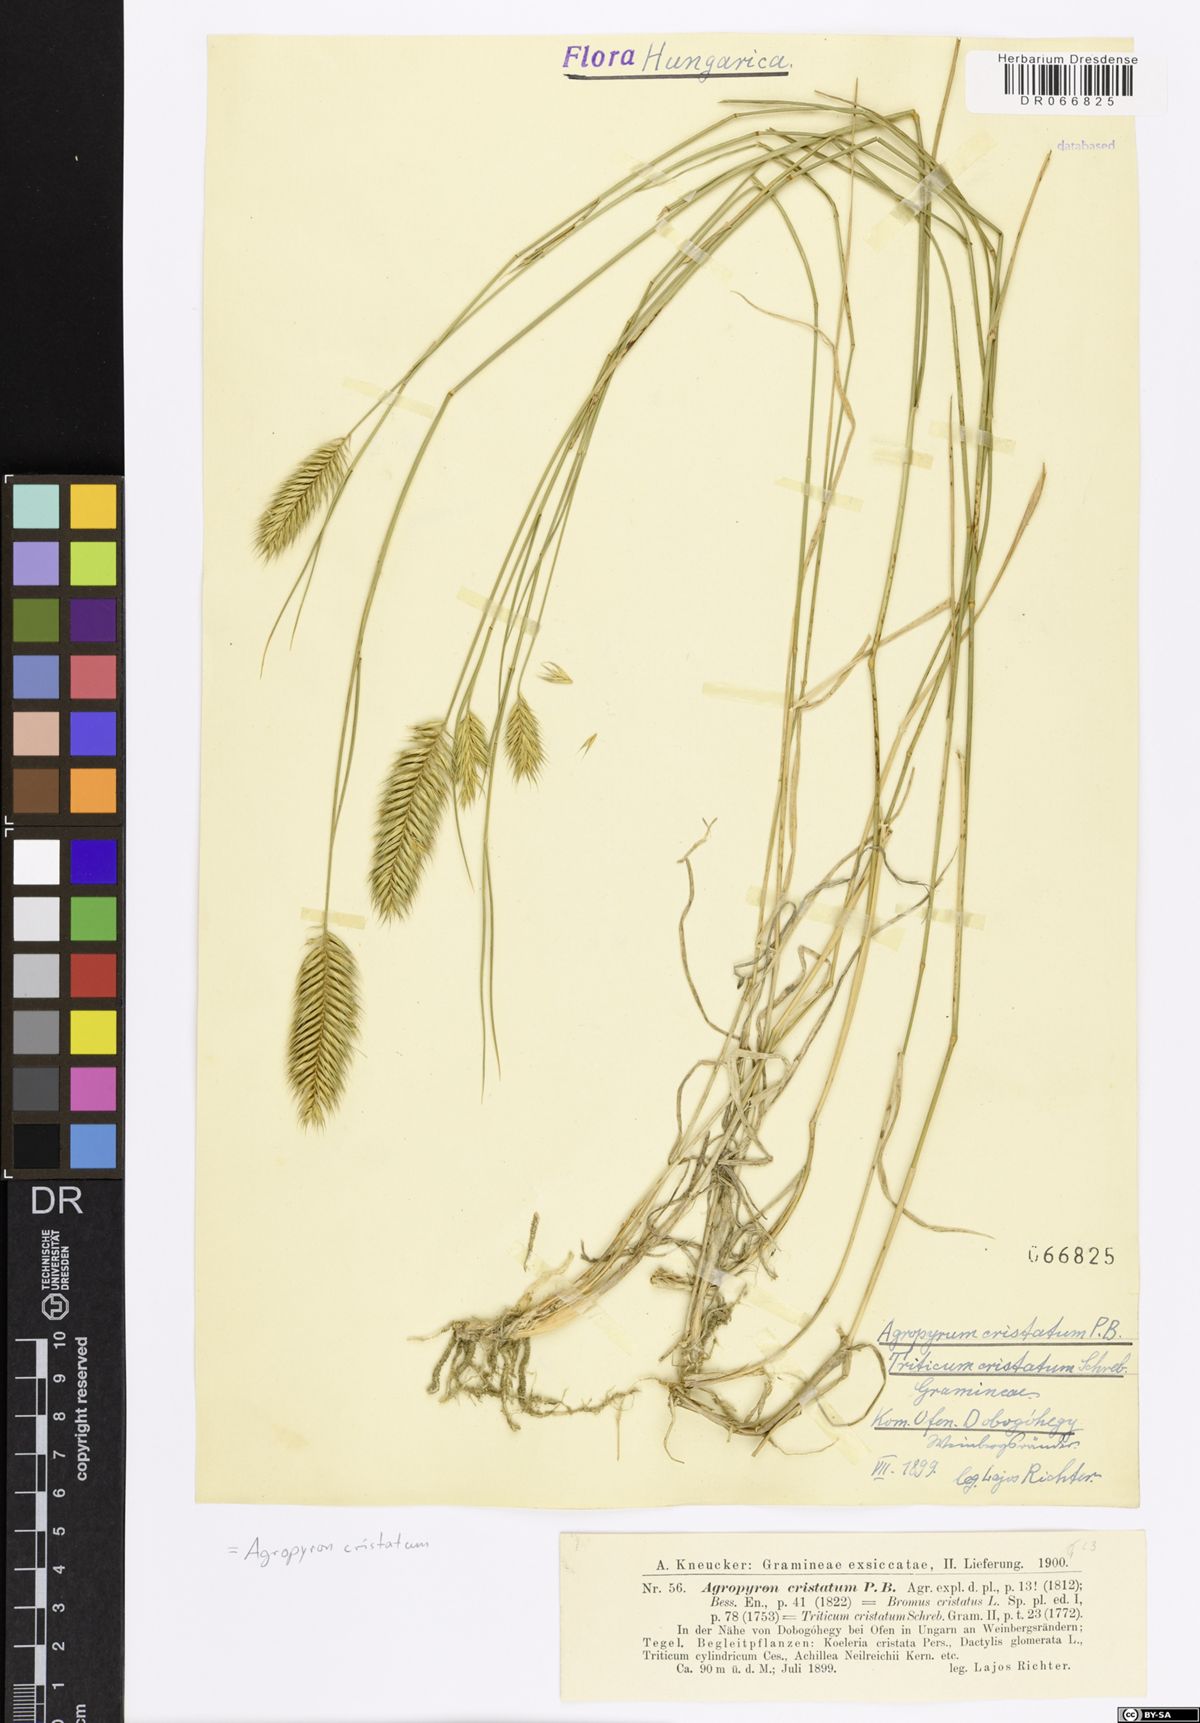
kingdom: Plantae
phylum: Tracheophyta
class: Liliopsida
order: Poales
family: Poaceae
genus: Agropyron
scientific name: Agropyron cristatum
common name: Crested wheatgrass
